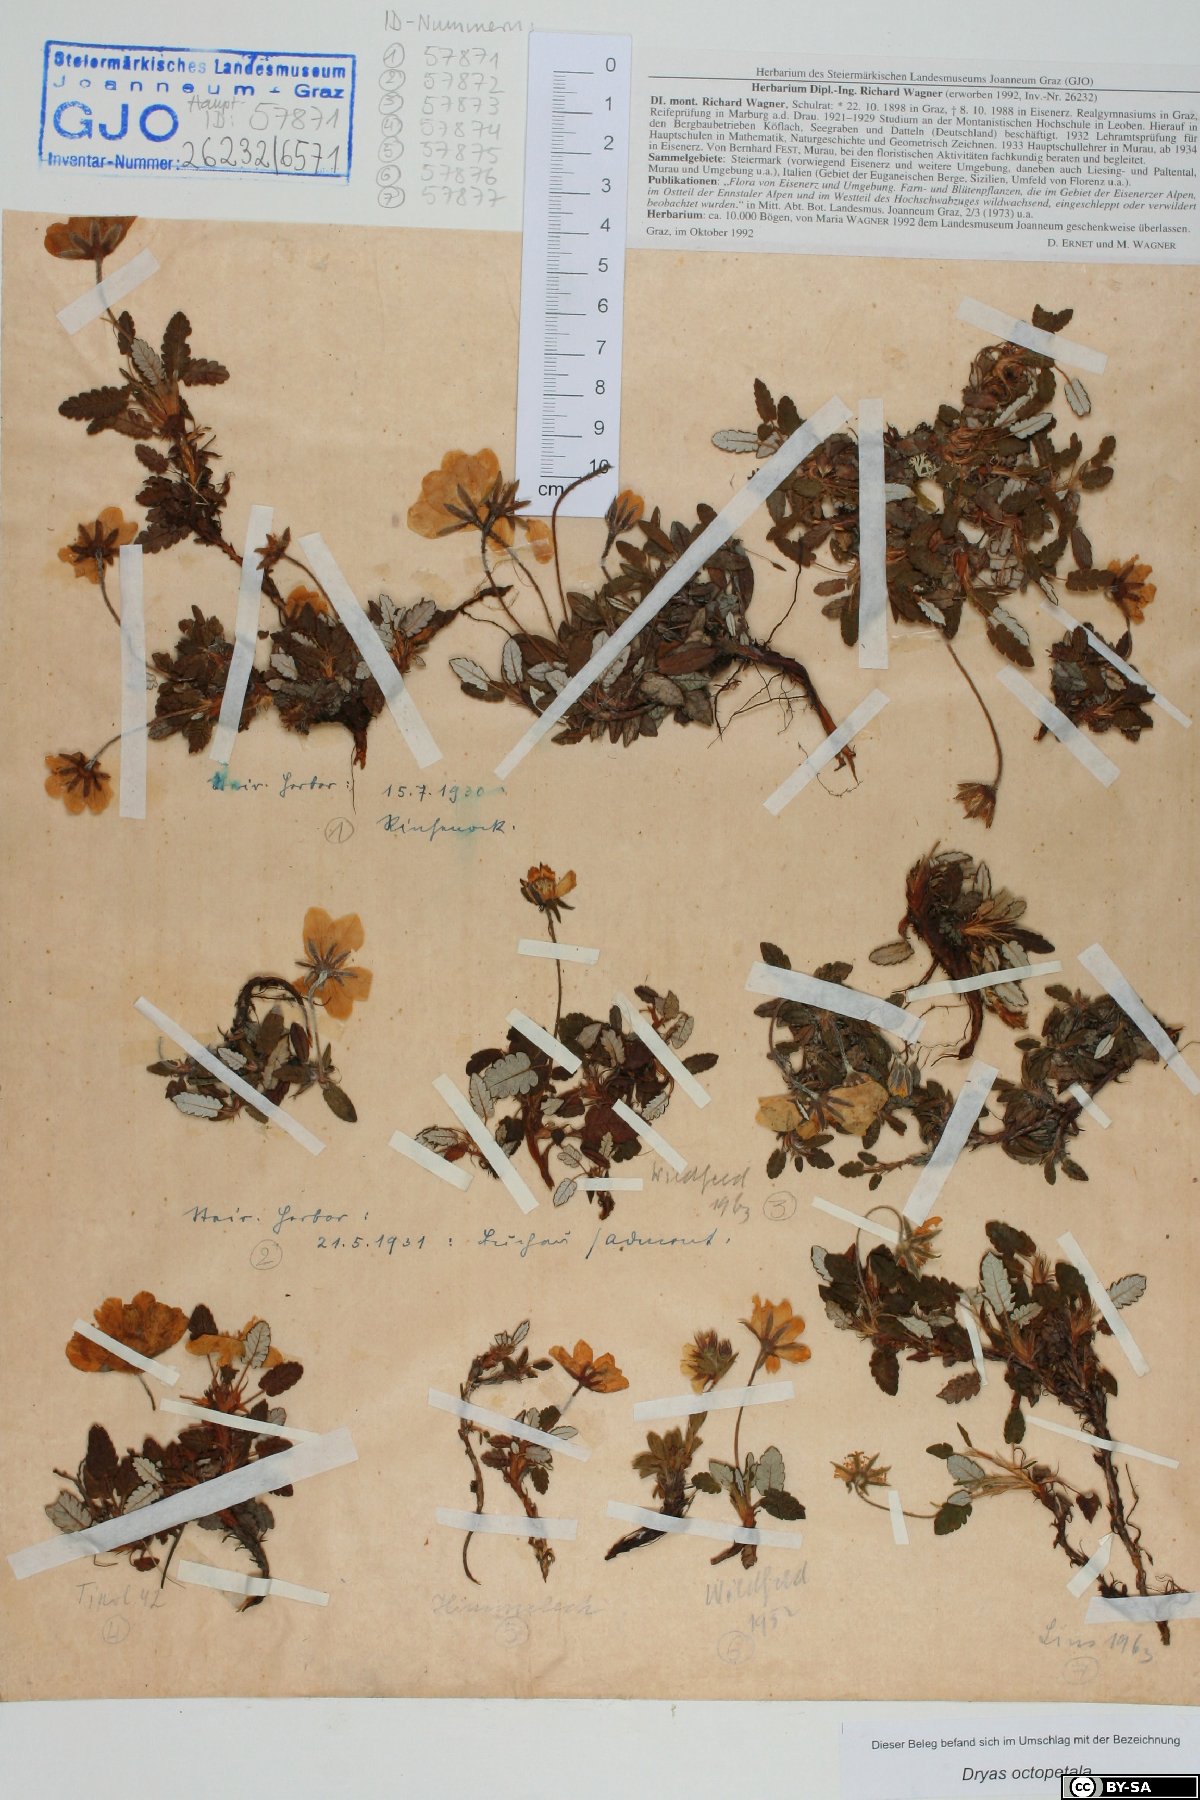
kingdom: Plantae
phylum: Tracheophyta
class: Magnoliopsida
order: Rosales
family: Rosaceae
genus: Dryas
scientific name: Dryas octopetala
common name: Eight-petal mountain-avens
